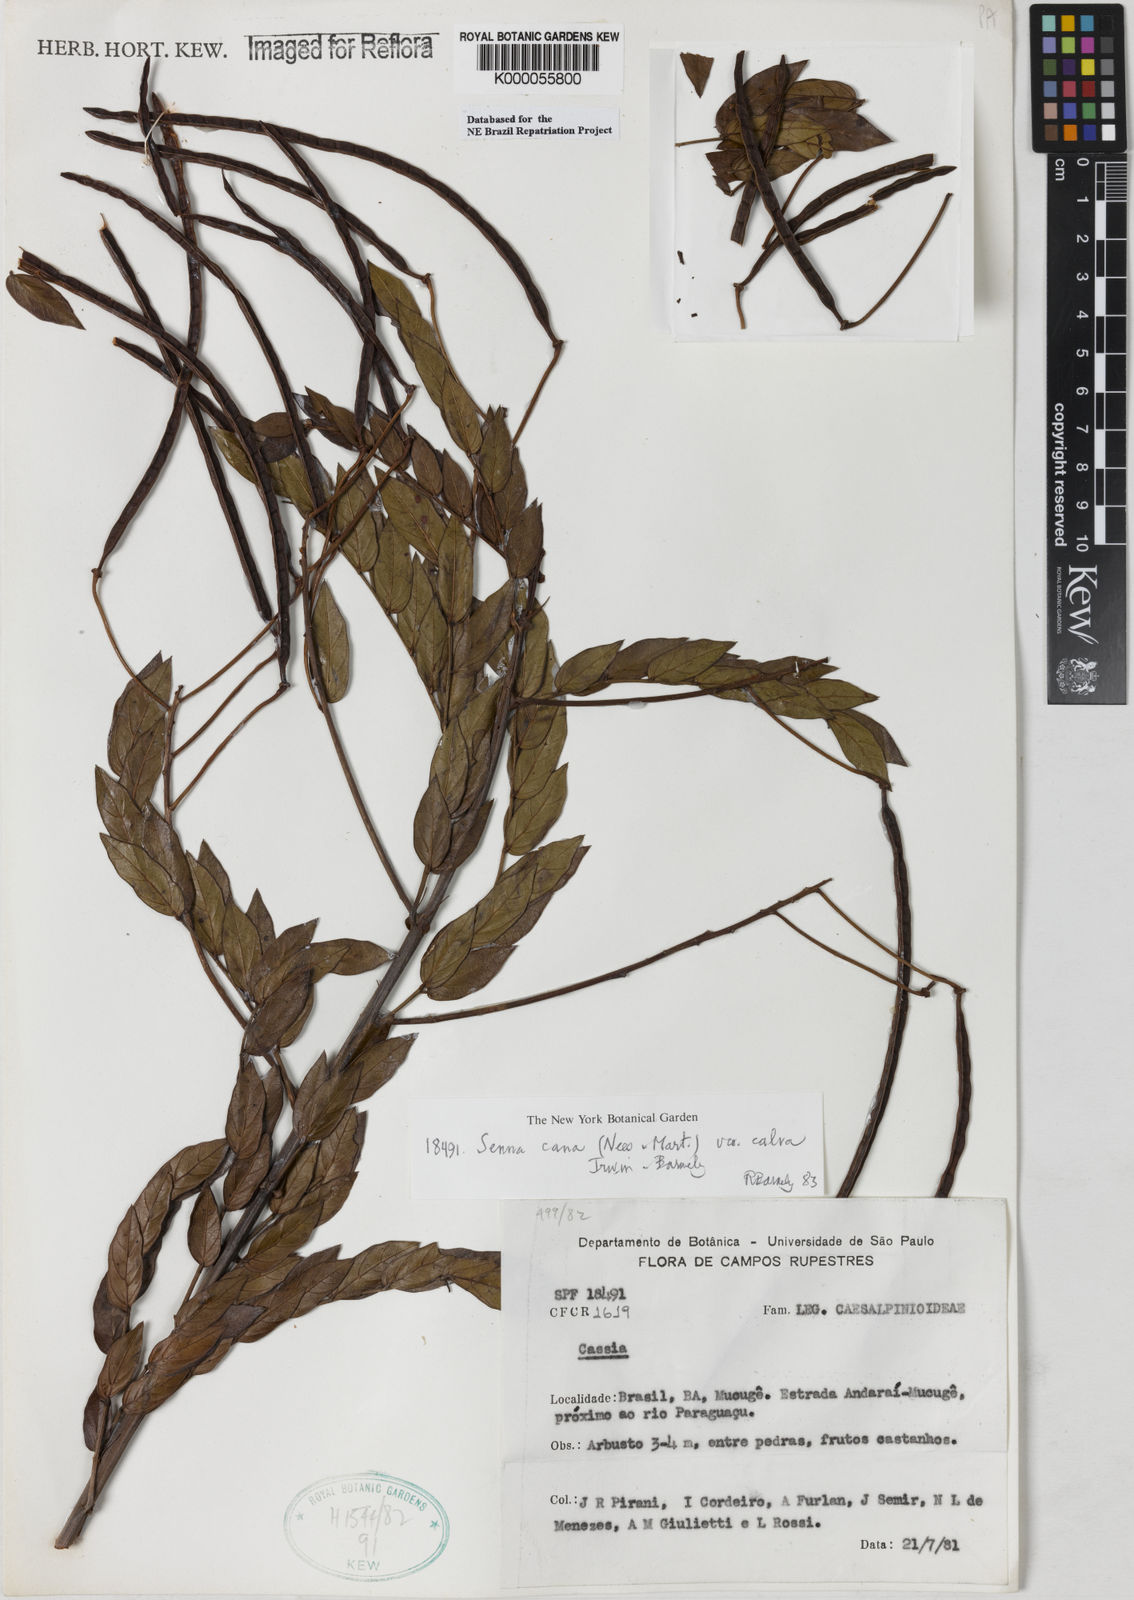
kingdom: Plantae
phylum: Tracheophyta
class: Magnoliopsida
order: Fabales
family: Fabaceae
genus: Senna
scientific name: Senna cana
